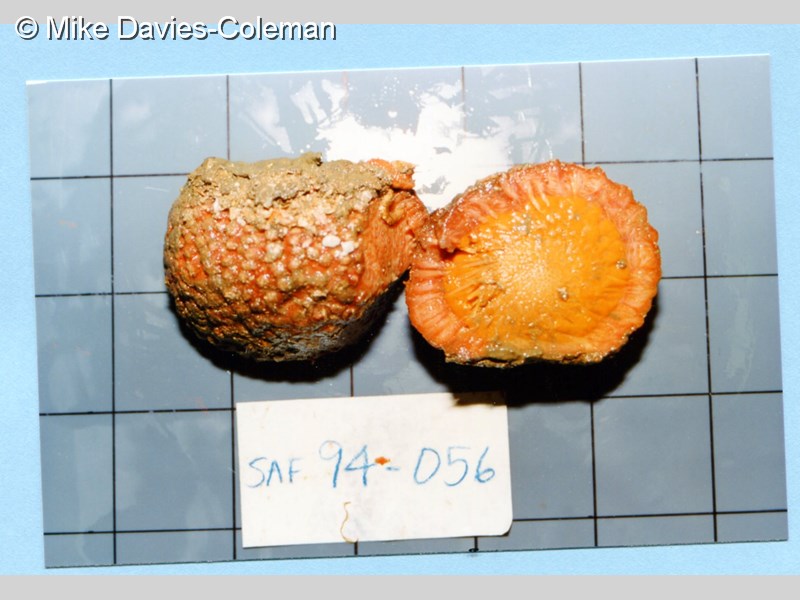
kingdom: Animalia
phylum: Porifera
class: Demospongiae
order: Tethyida
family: Tethyidae
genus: Tethya
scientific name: Tethya
